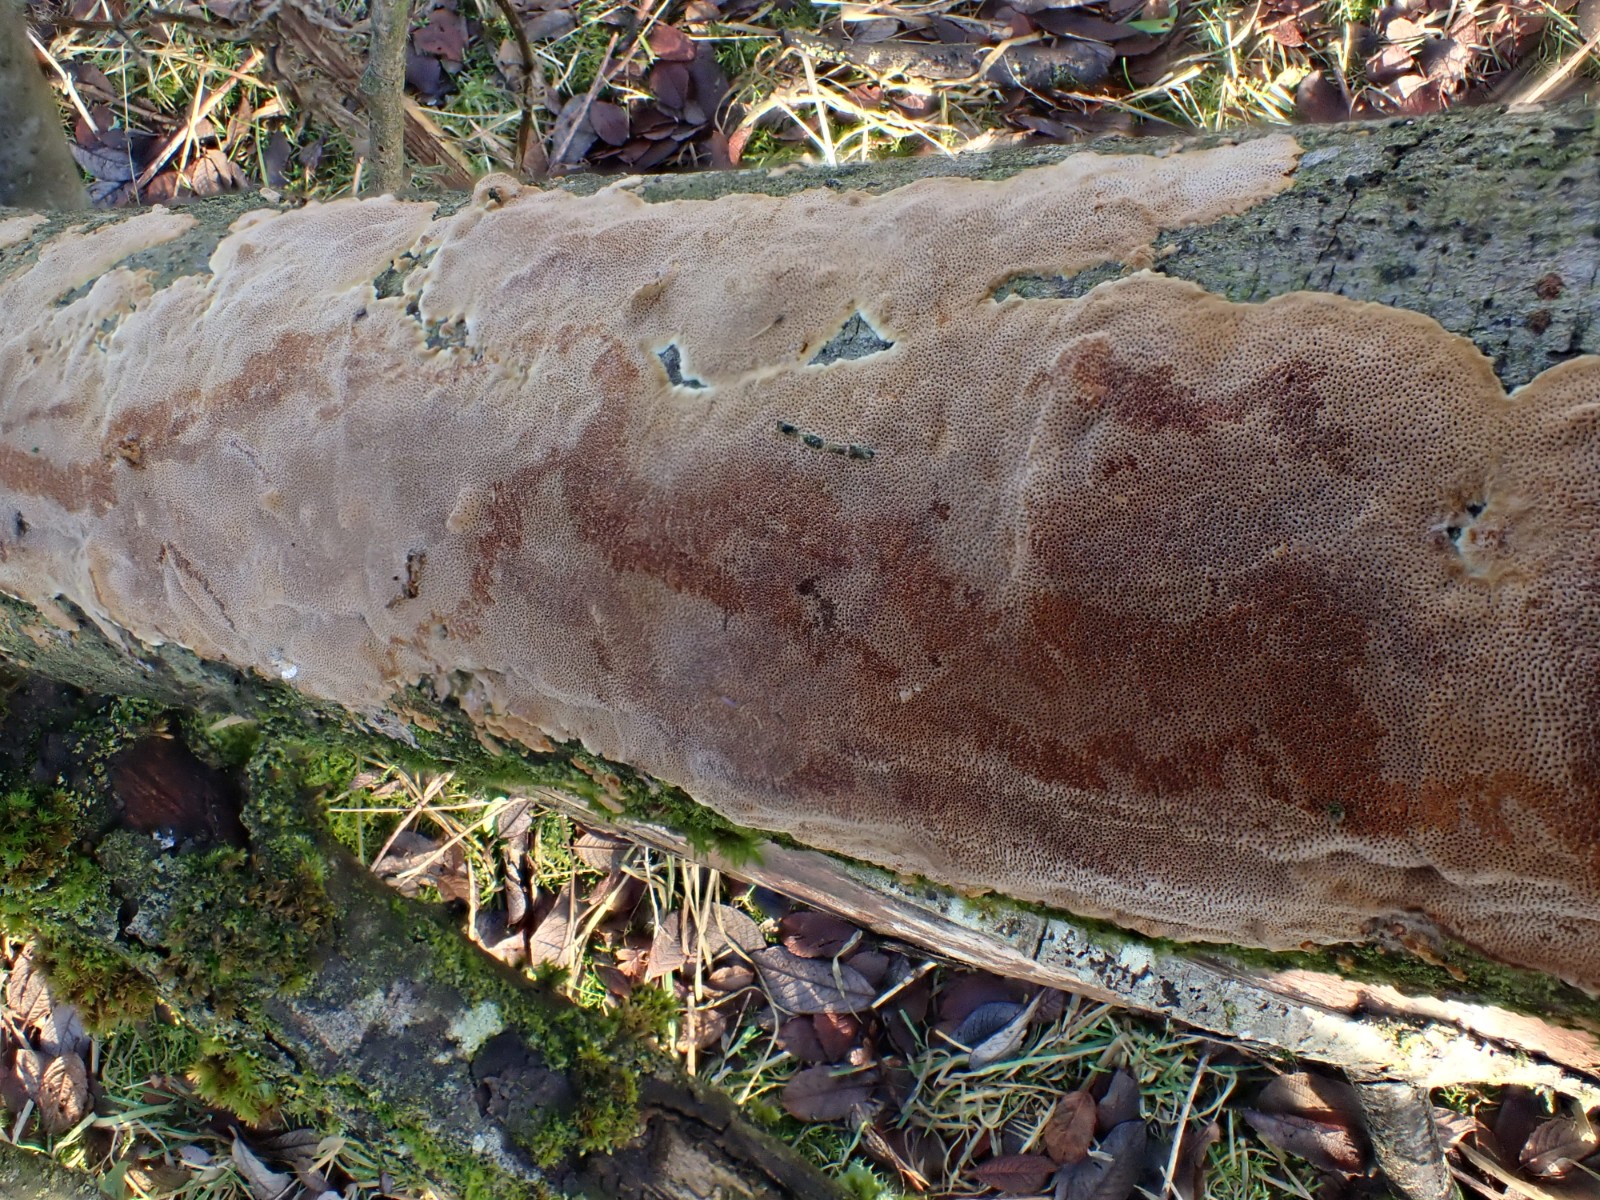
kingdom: Fungi
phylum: Basidiomycota
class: Agaricomycetes
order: Hymenochaetales
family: Hymenochaetaceae
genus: Fuscoporia
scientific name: Fuscoporia ferrea
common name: skorpe-ildporesvamp
